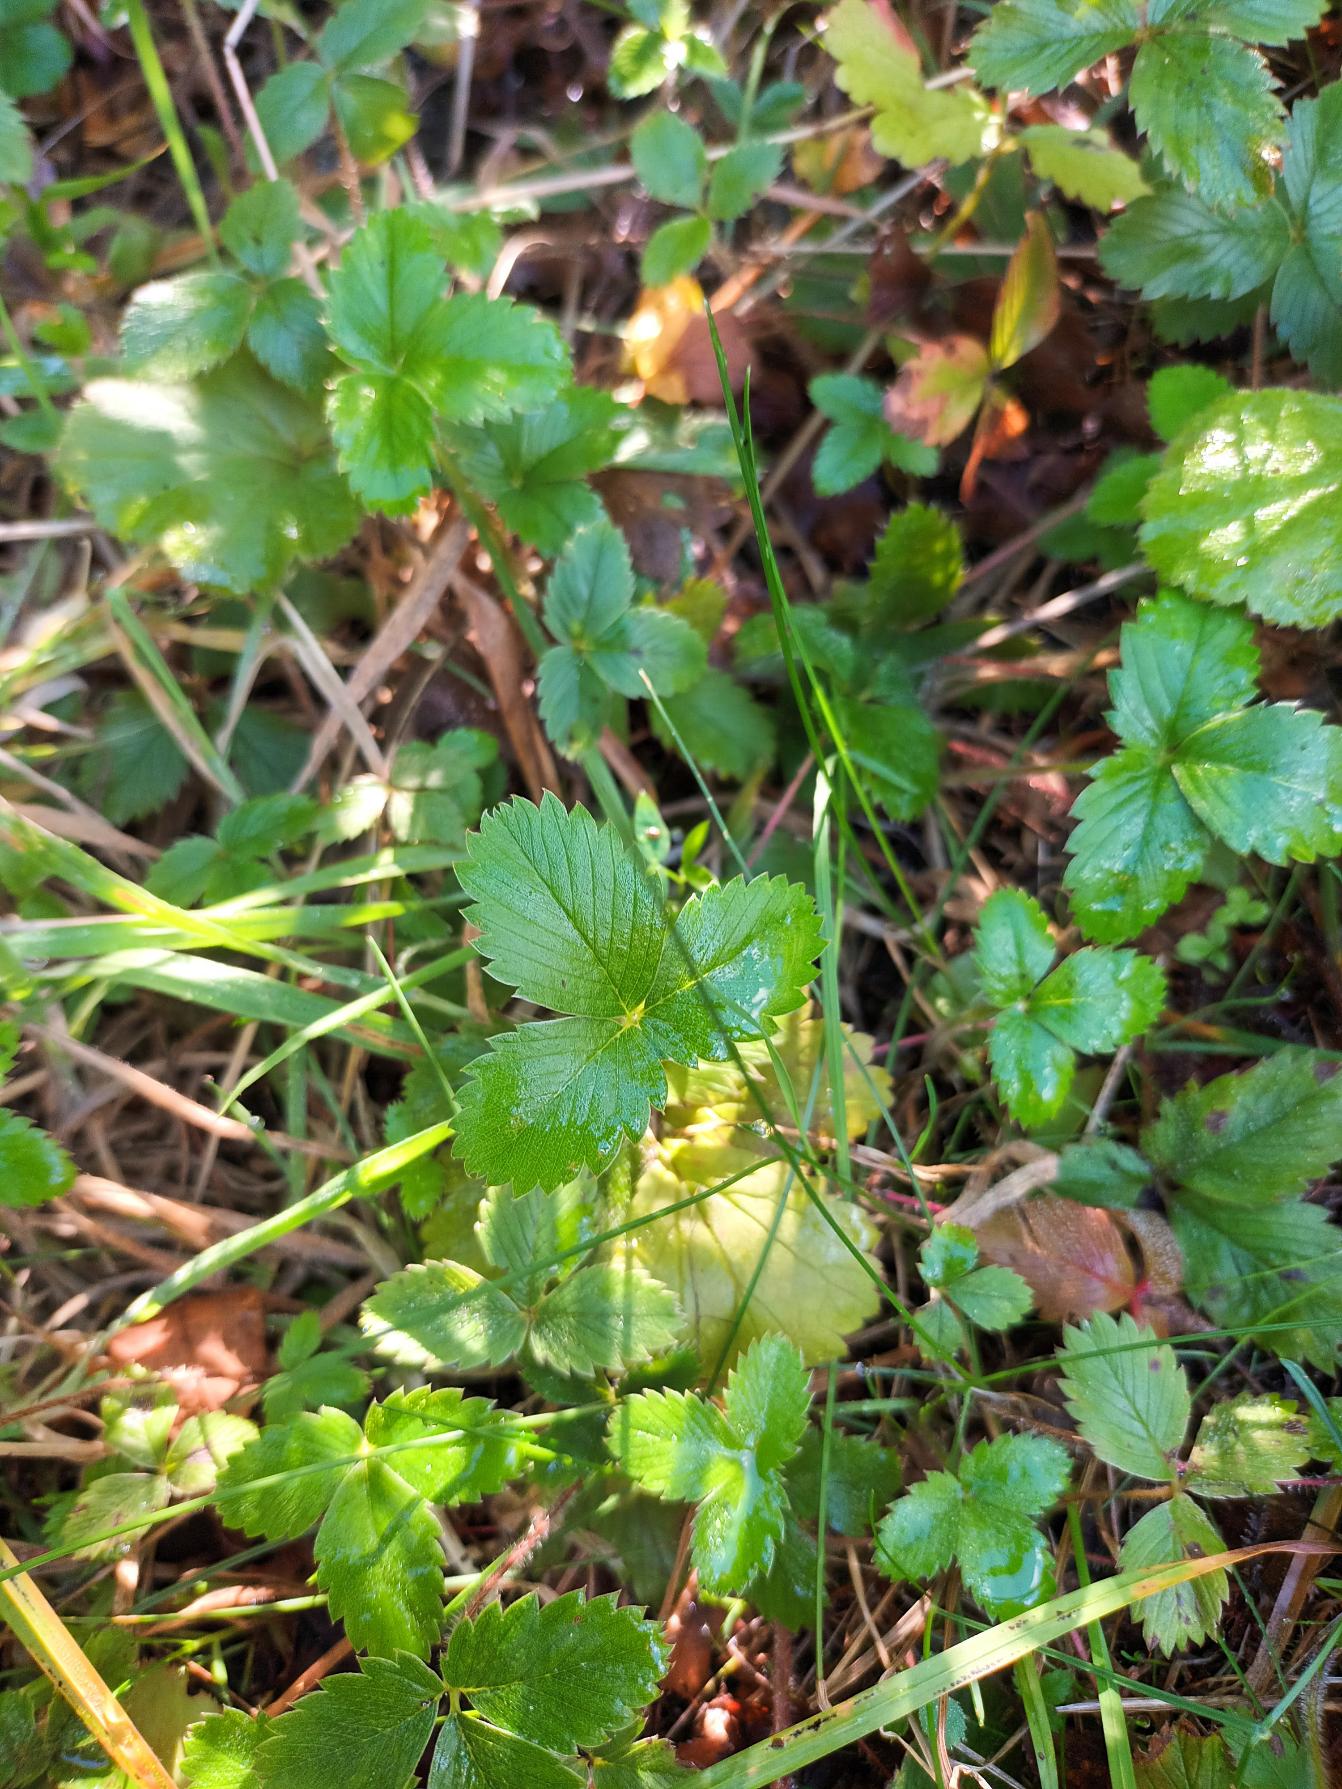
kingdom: Plantae
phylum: Tracheophyta
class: Magnoliopsida
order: Rosales
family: Rosaceae
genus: Fragaria
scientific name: Fragaria viridis
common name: Bakke-jordbær
